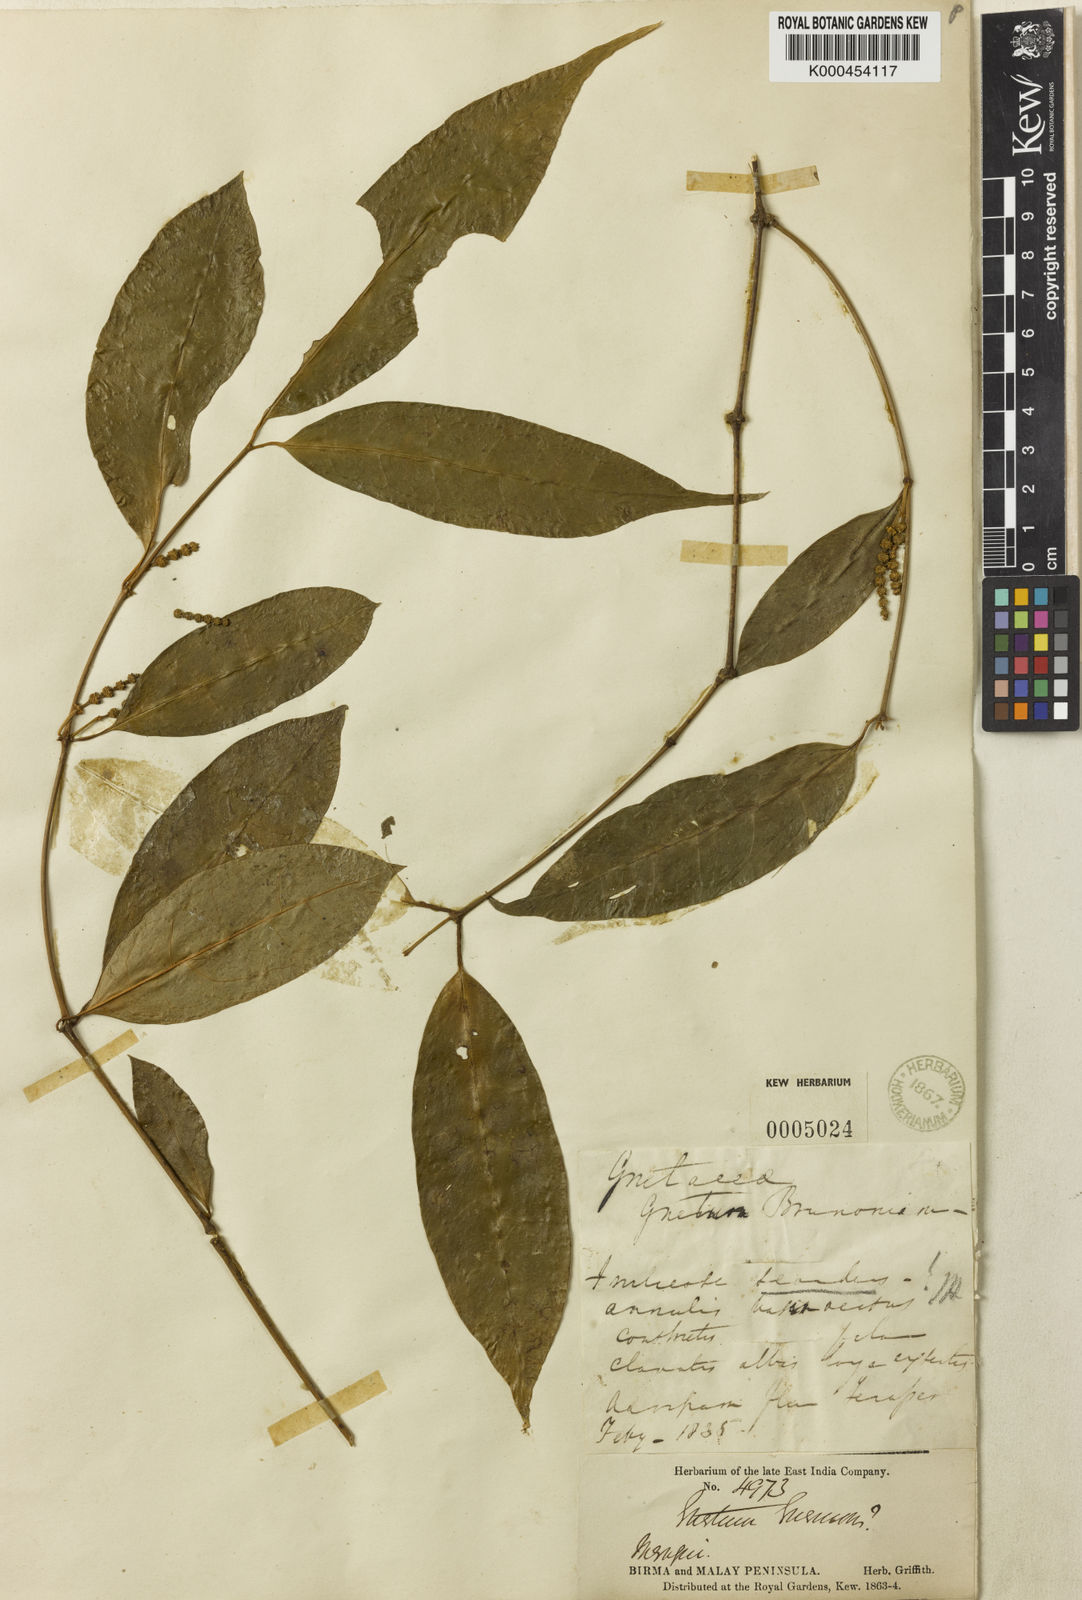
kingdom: Plantae
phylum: Tracheophyta
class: Gnetopsida
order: Gnetales
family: Gnetaceae
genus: Gnetum
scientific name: Gnetum gnemon
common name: Spanish joint-fir
